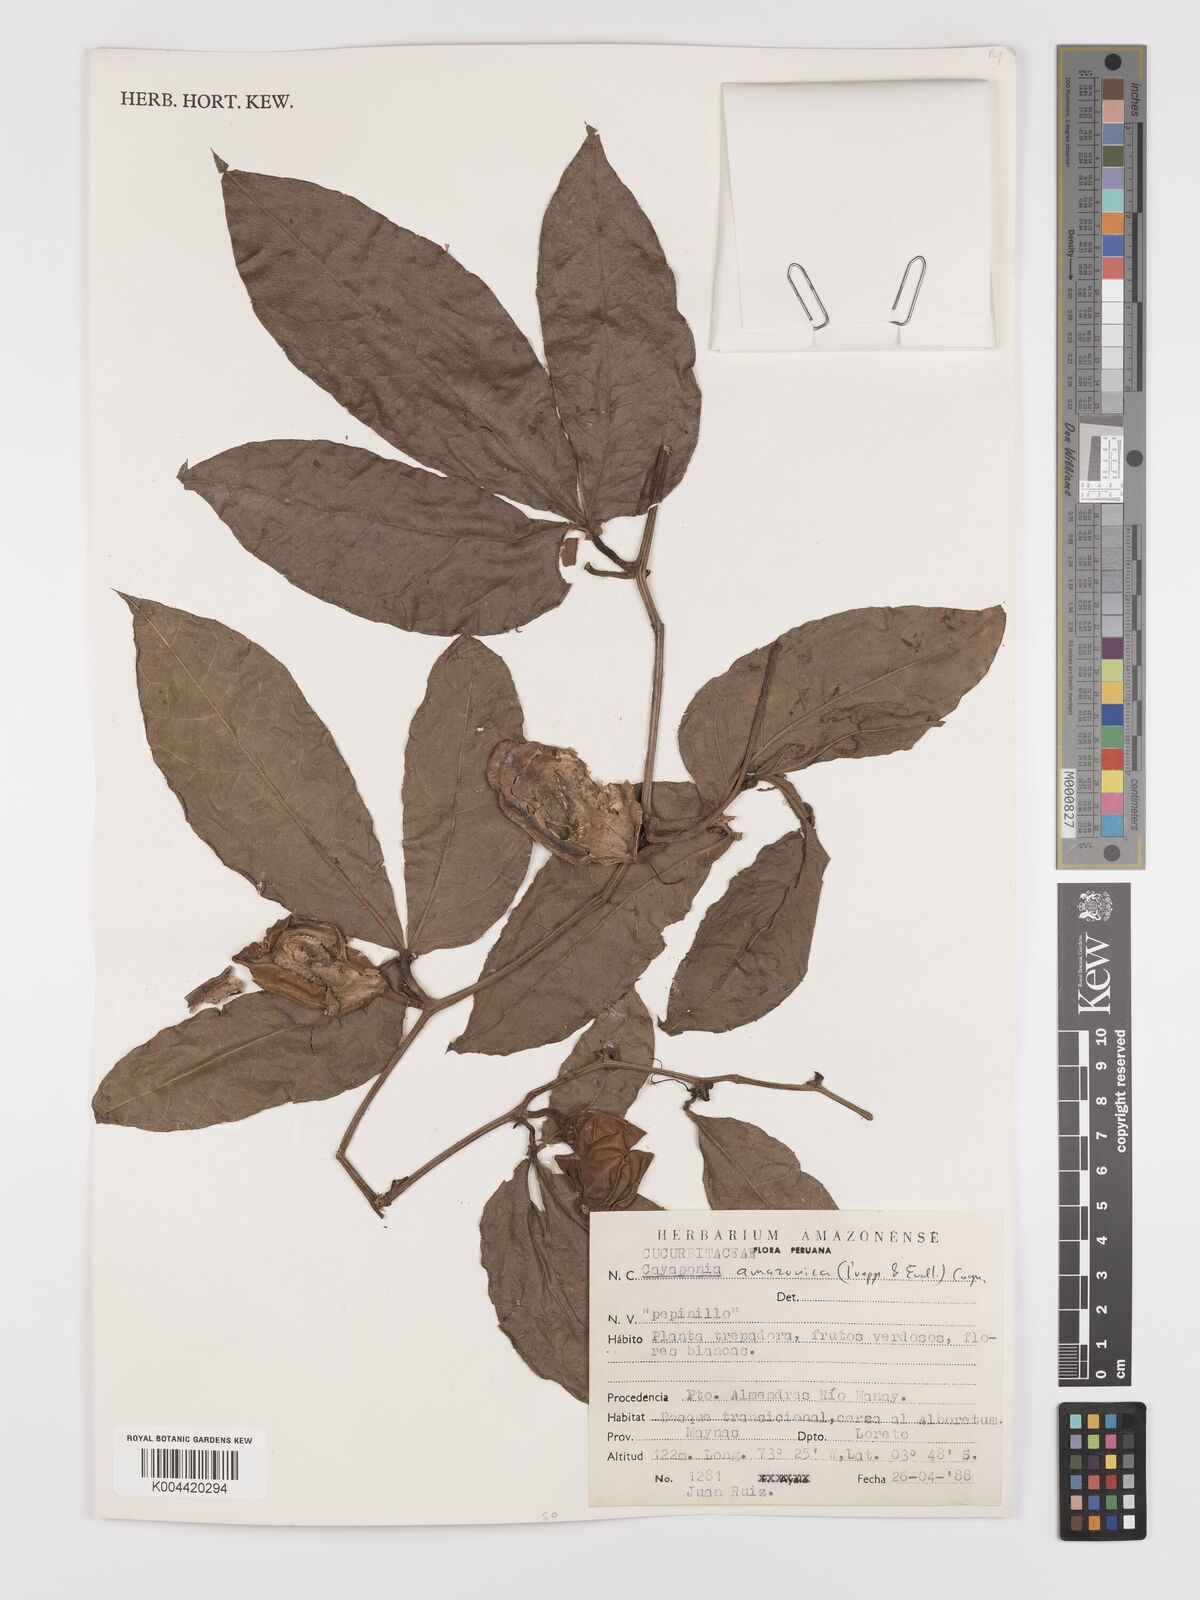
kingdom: Plantae
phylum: Tracheophyta
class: Magnoliopsida
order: Cucurbitales
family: Cucurbitaceae
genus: Cayaponia
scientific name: Cayaponia amazonica
